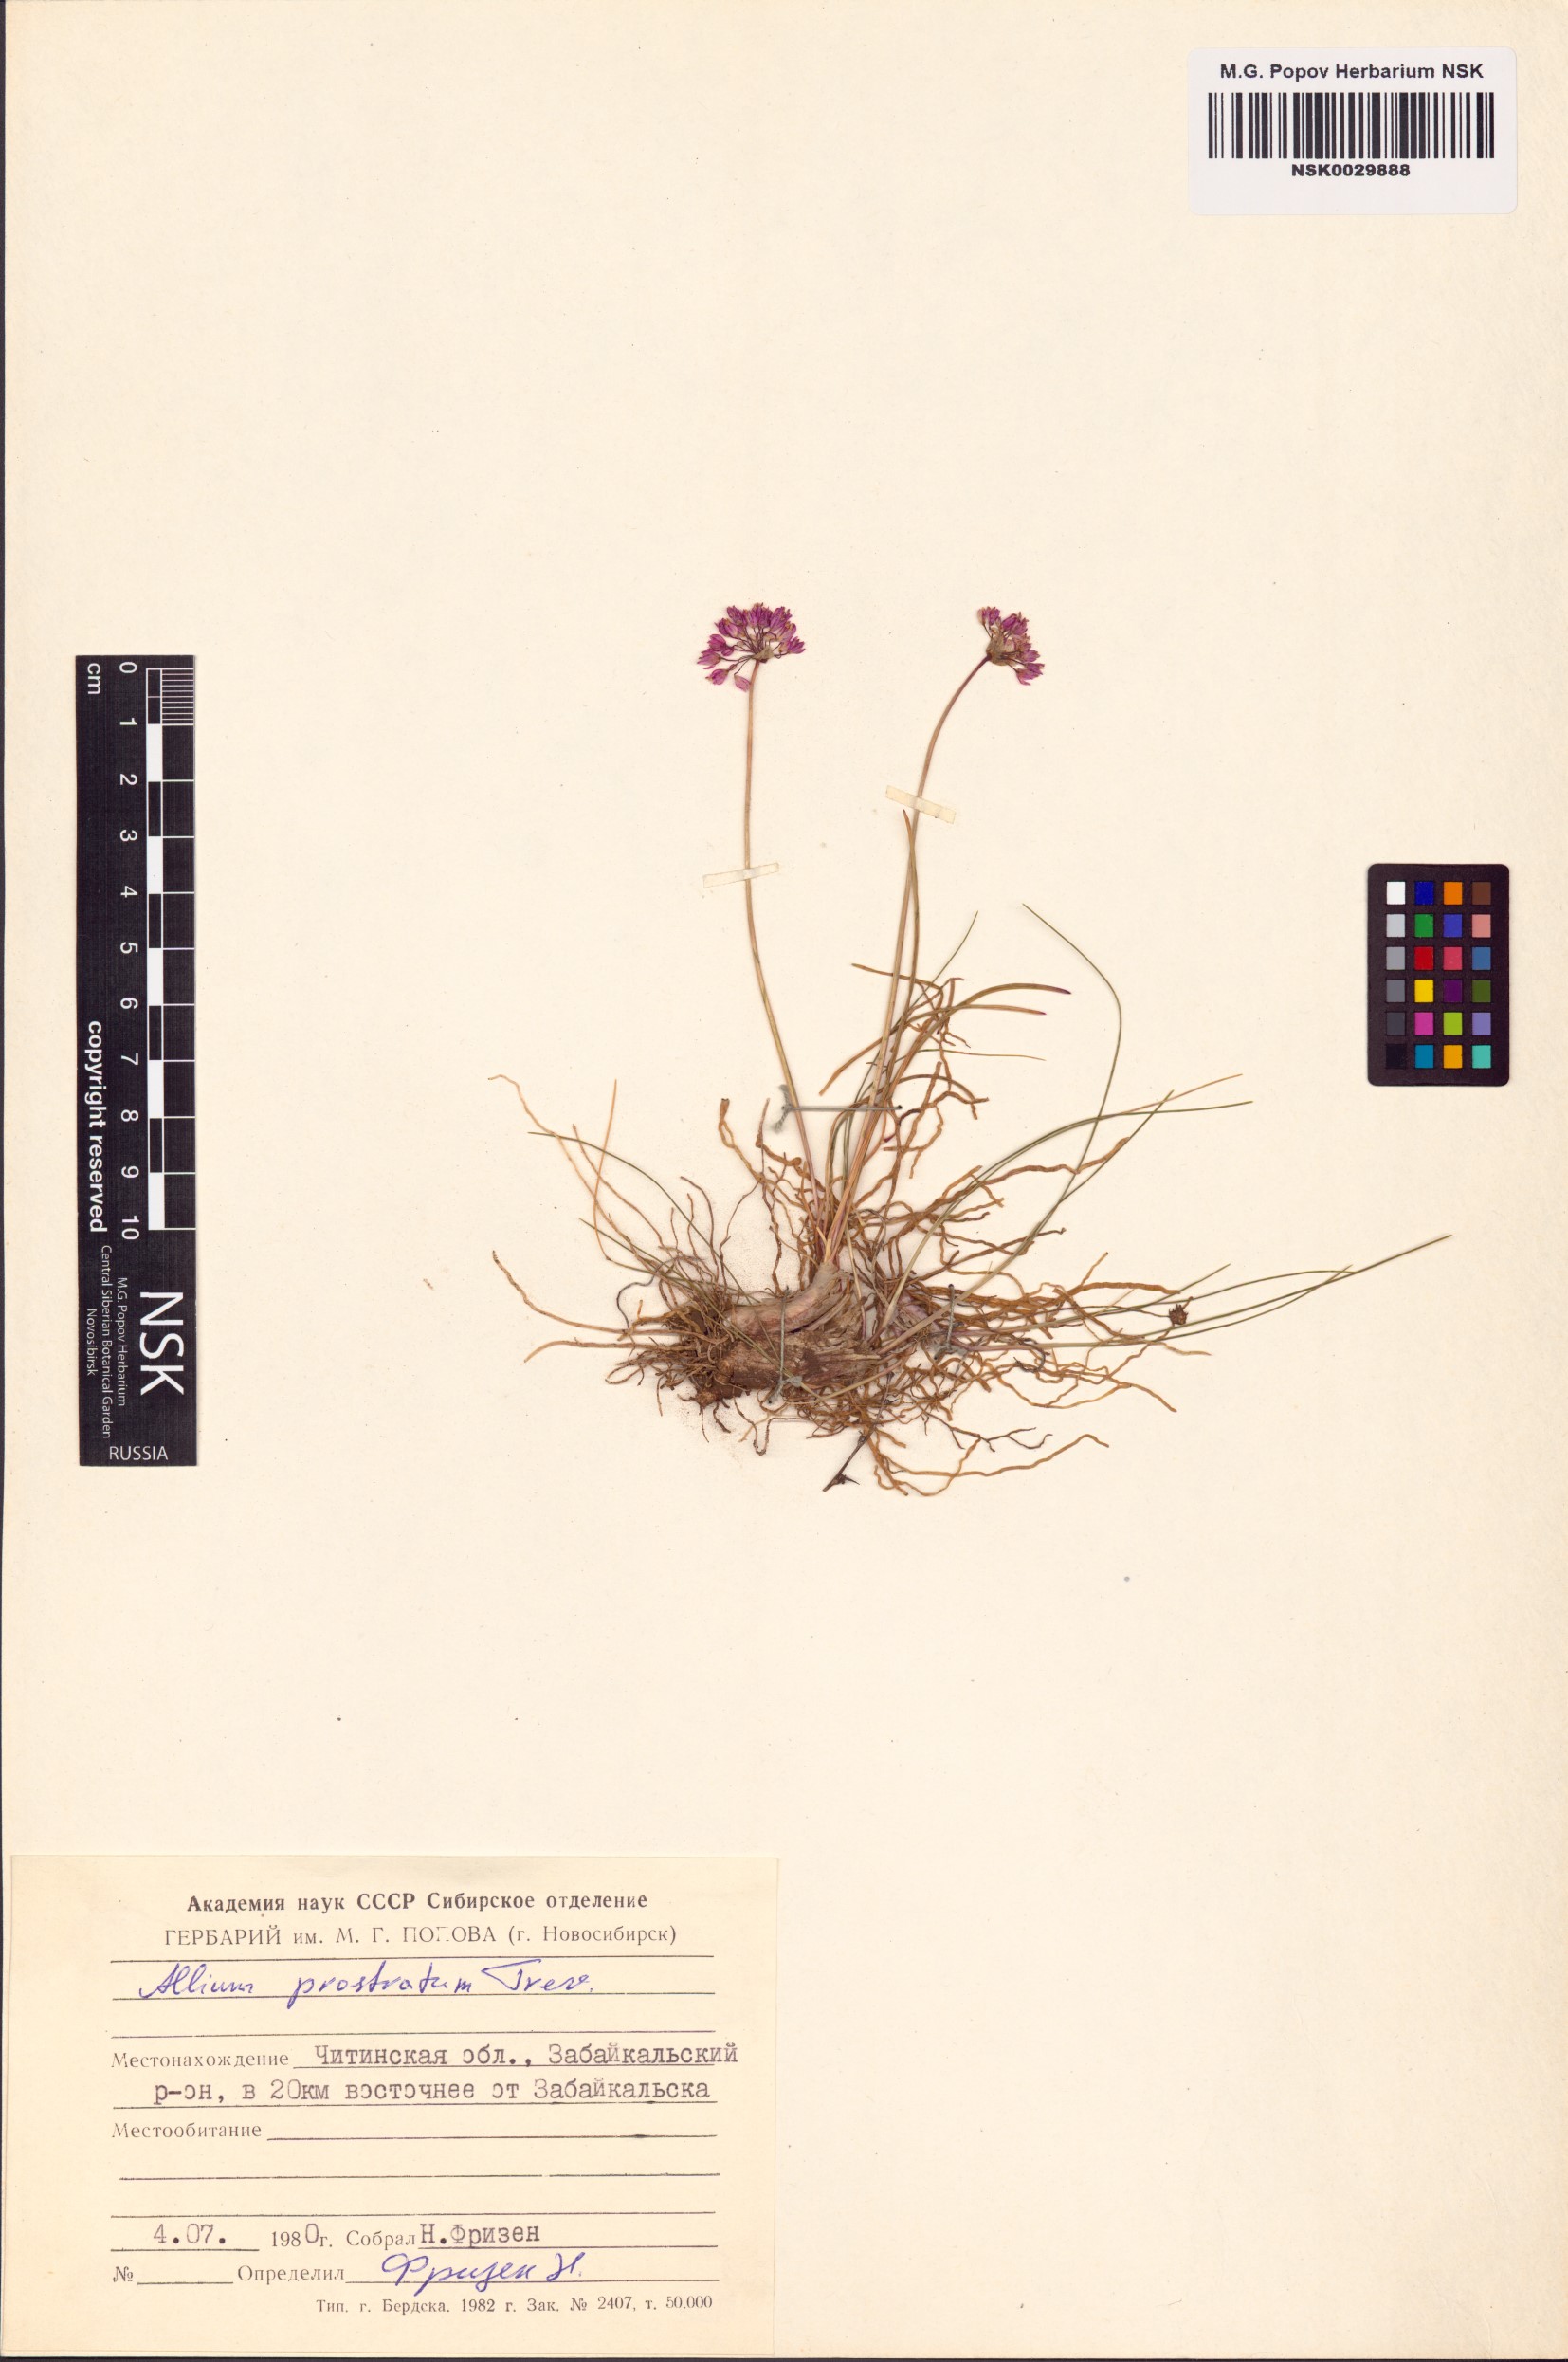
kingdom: Plantae
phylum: Tracheophyta
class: Liliopsida
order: Asparagales
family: Amaryllidaceae
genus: Allium
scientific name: Allium prostratum
